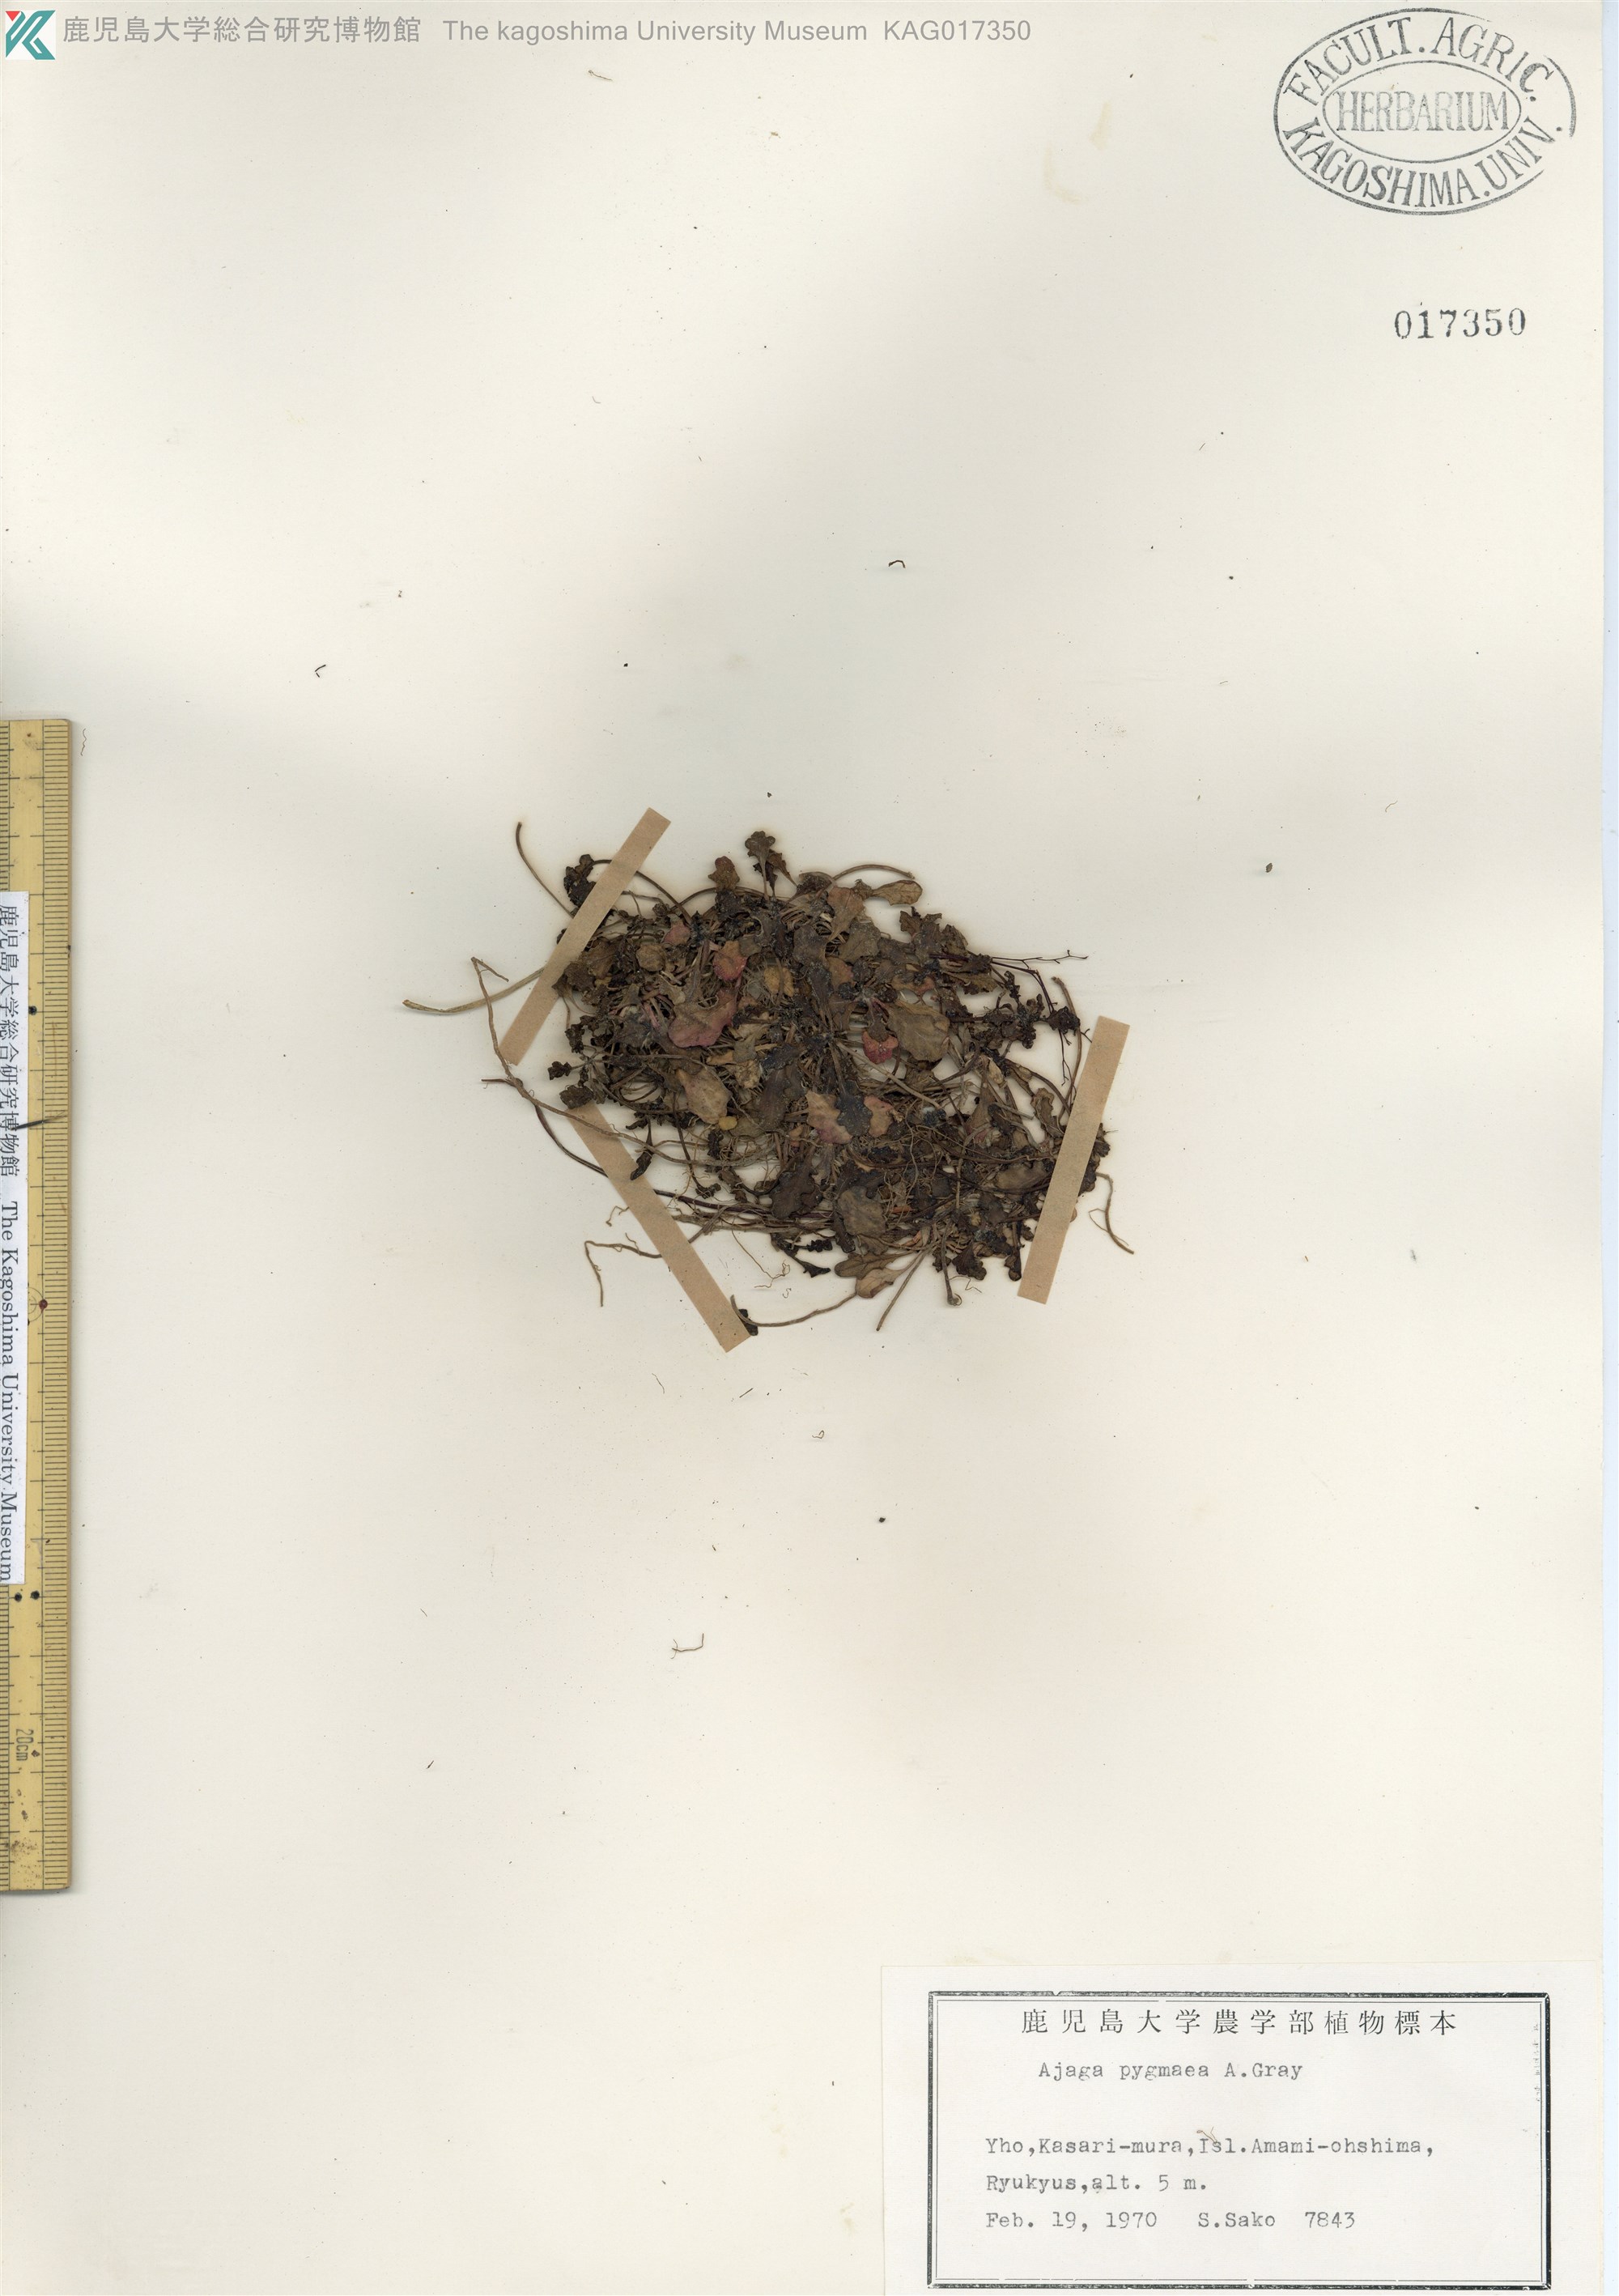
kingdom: Plantae
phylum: Tracheophyta
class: Magnoliopsida
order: Lamiales
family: Lamiaceae
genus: Ajuga
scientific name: Ajuga pygmaea
